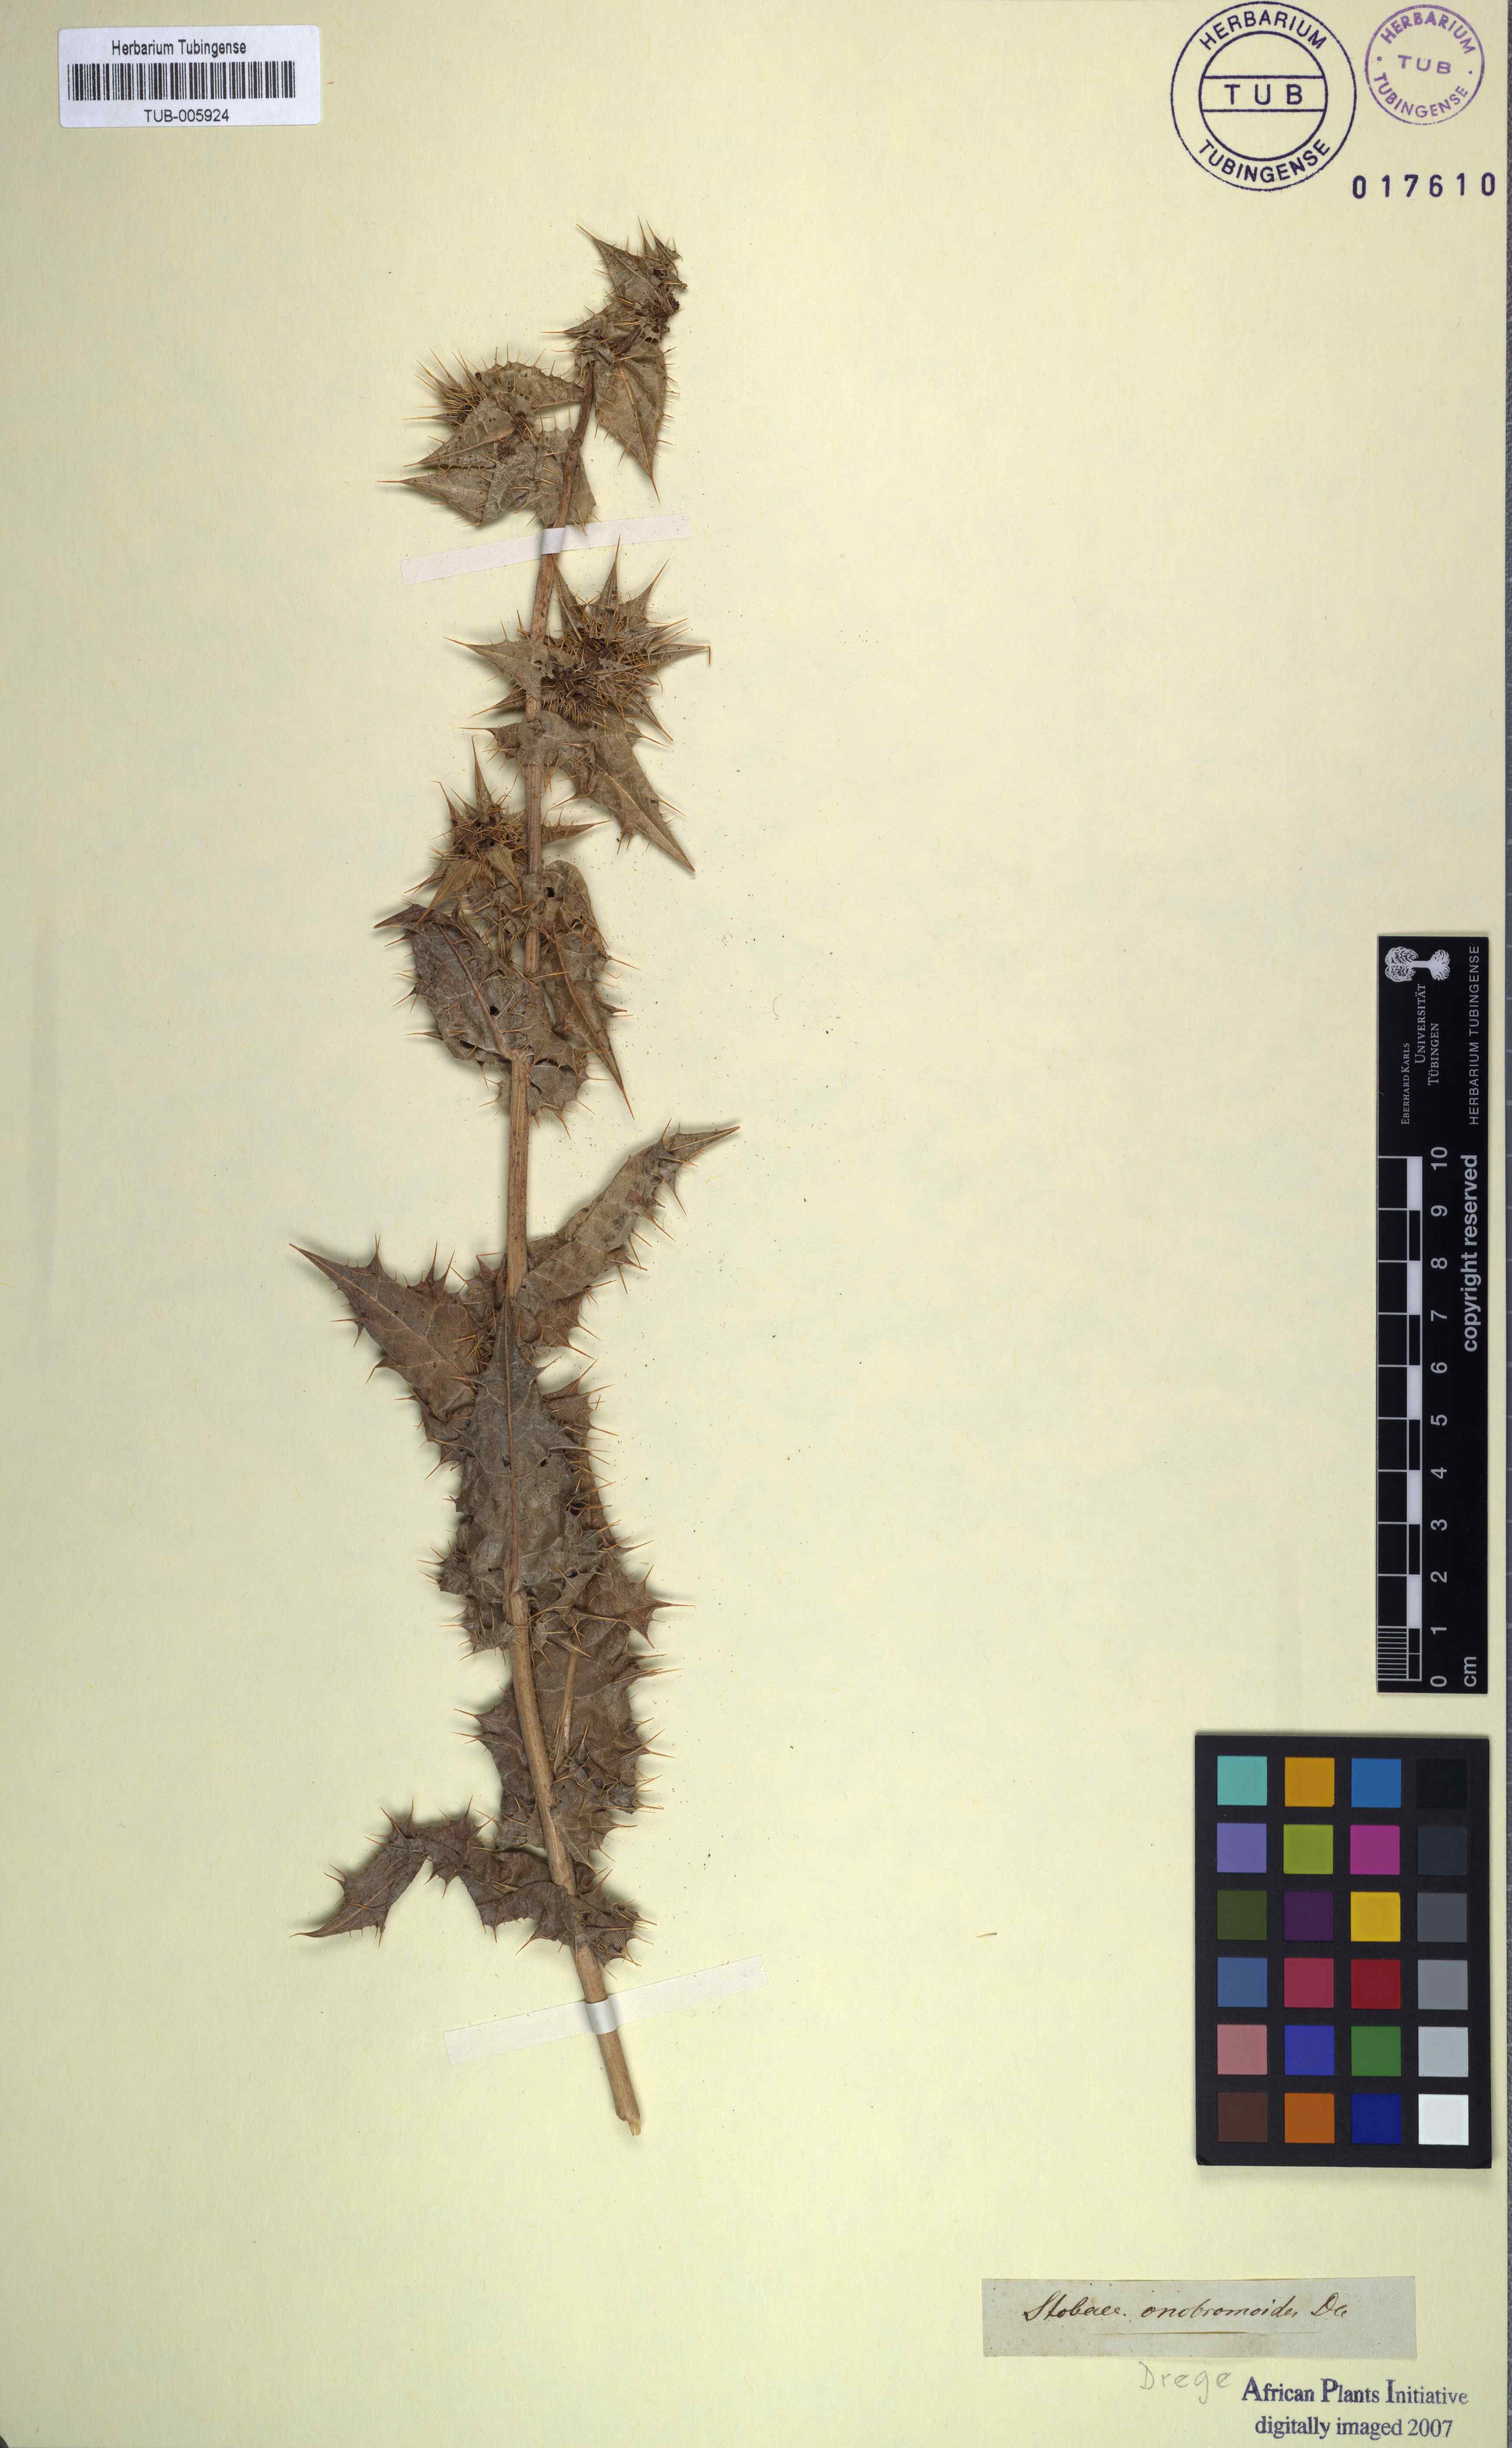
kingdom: Plantae
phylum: Tracheophyta
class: Magnoliopsida
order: Asterales
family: Asteraceae
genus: Berkheya
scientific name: Berkheya onobromoides
